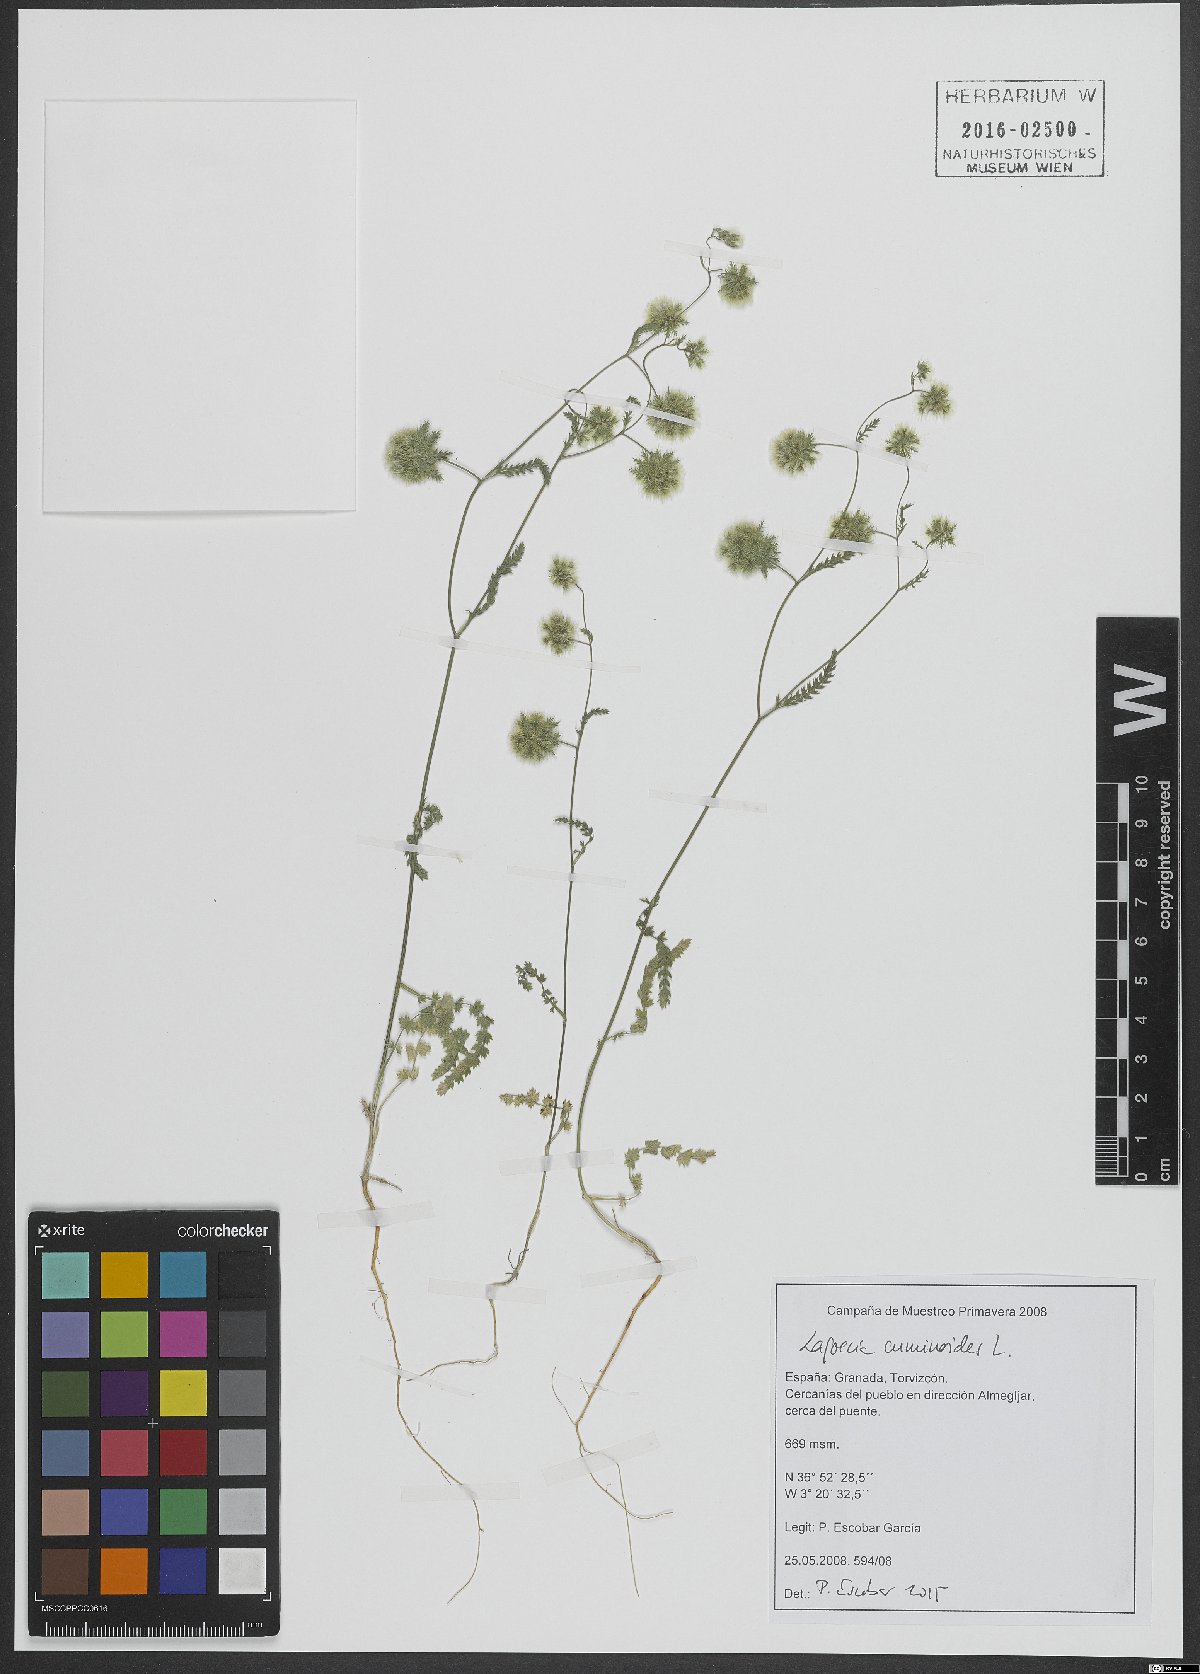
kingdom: Plantae
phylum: Tracheophyta
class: Magnoliopsida
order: Apiales
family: Apiaceae
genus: Lagoecia
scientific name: Lagoecia cuminoides
